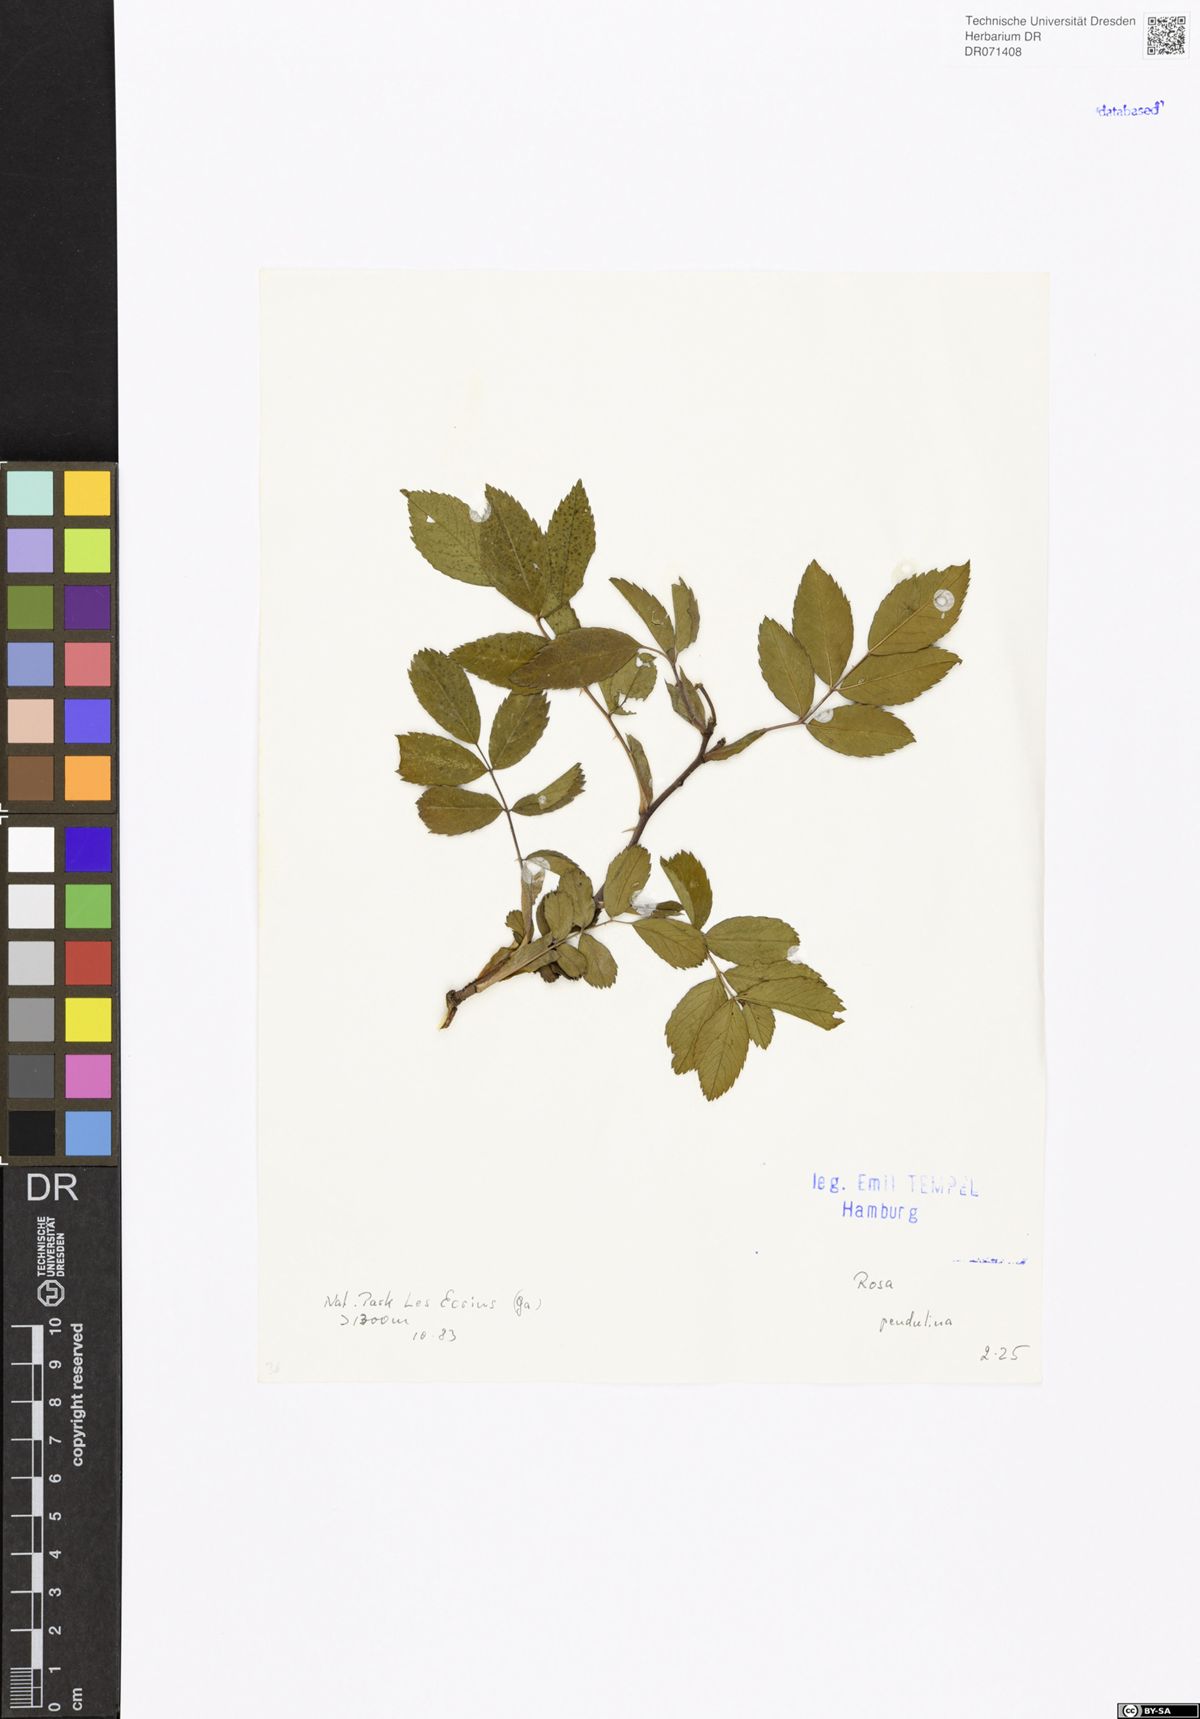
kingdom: Plantae
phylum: Tracheophyta
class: Magnoliopsida
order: Rosales
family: Rosaceae
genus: Rosa
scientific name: Rosa pendulina
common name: Alpine rose
